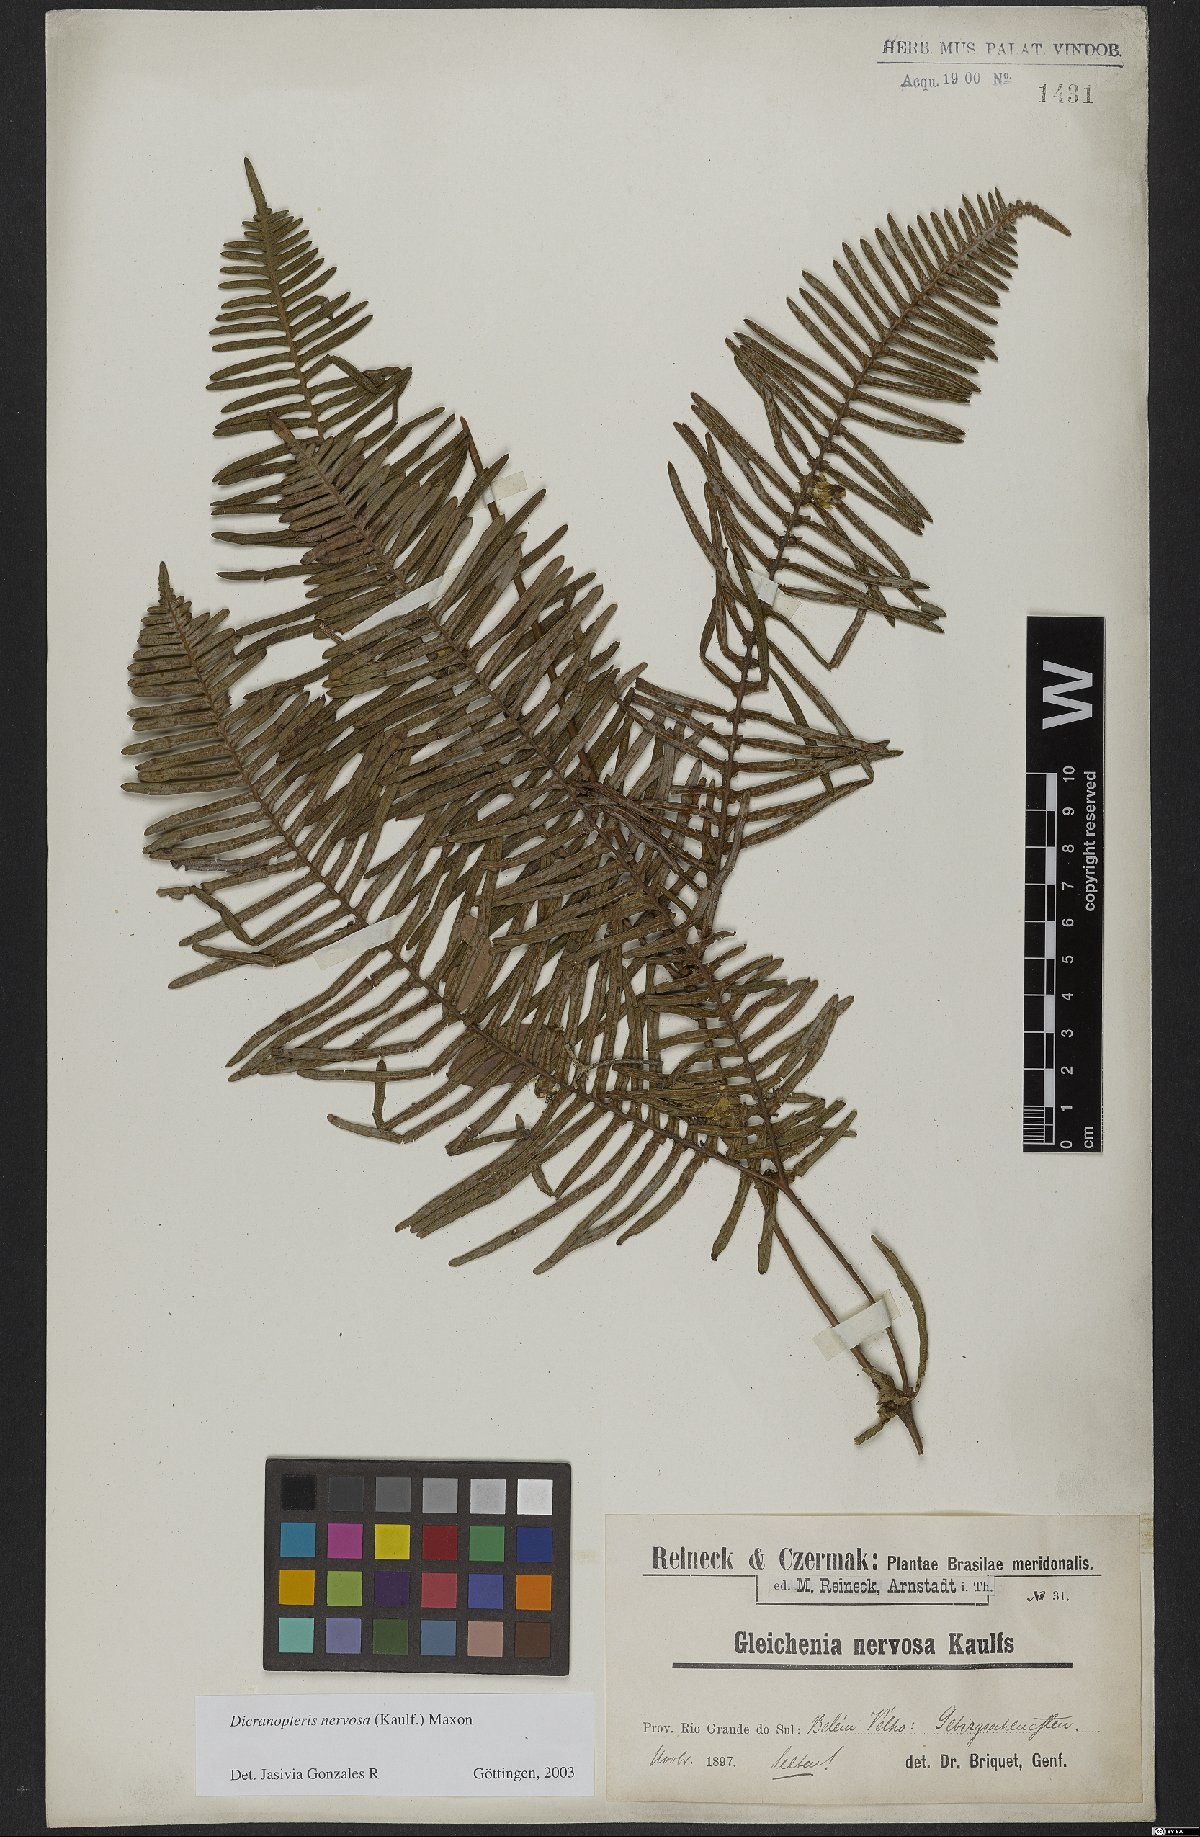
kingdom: Plantae
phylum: Tracheophyta
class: Polypodiopsida
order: Gleicheniales
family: Gleicheniaceae
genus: Dicranopteris
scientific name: Dicranopteris nervosa
